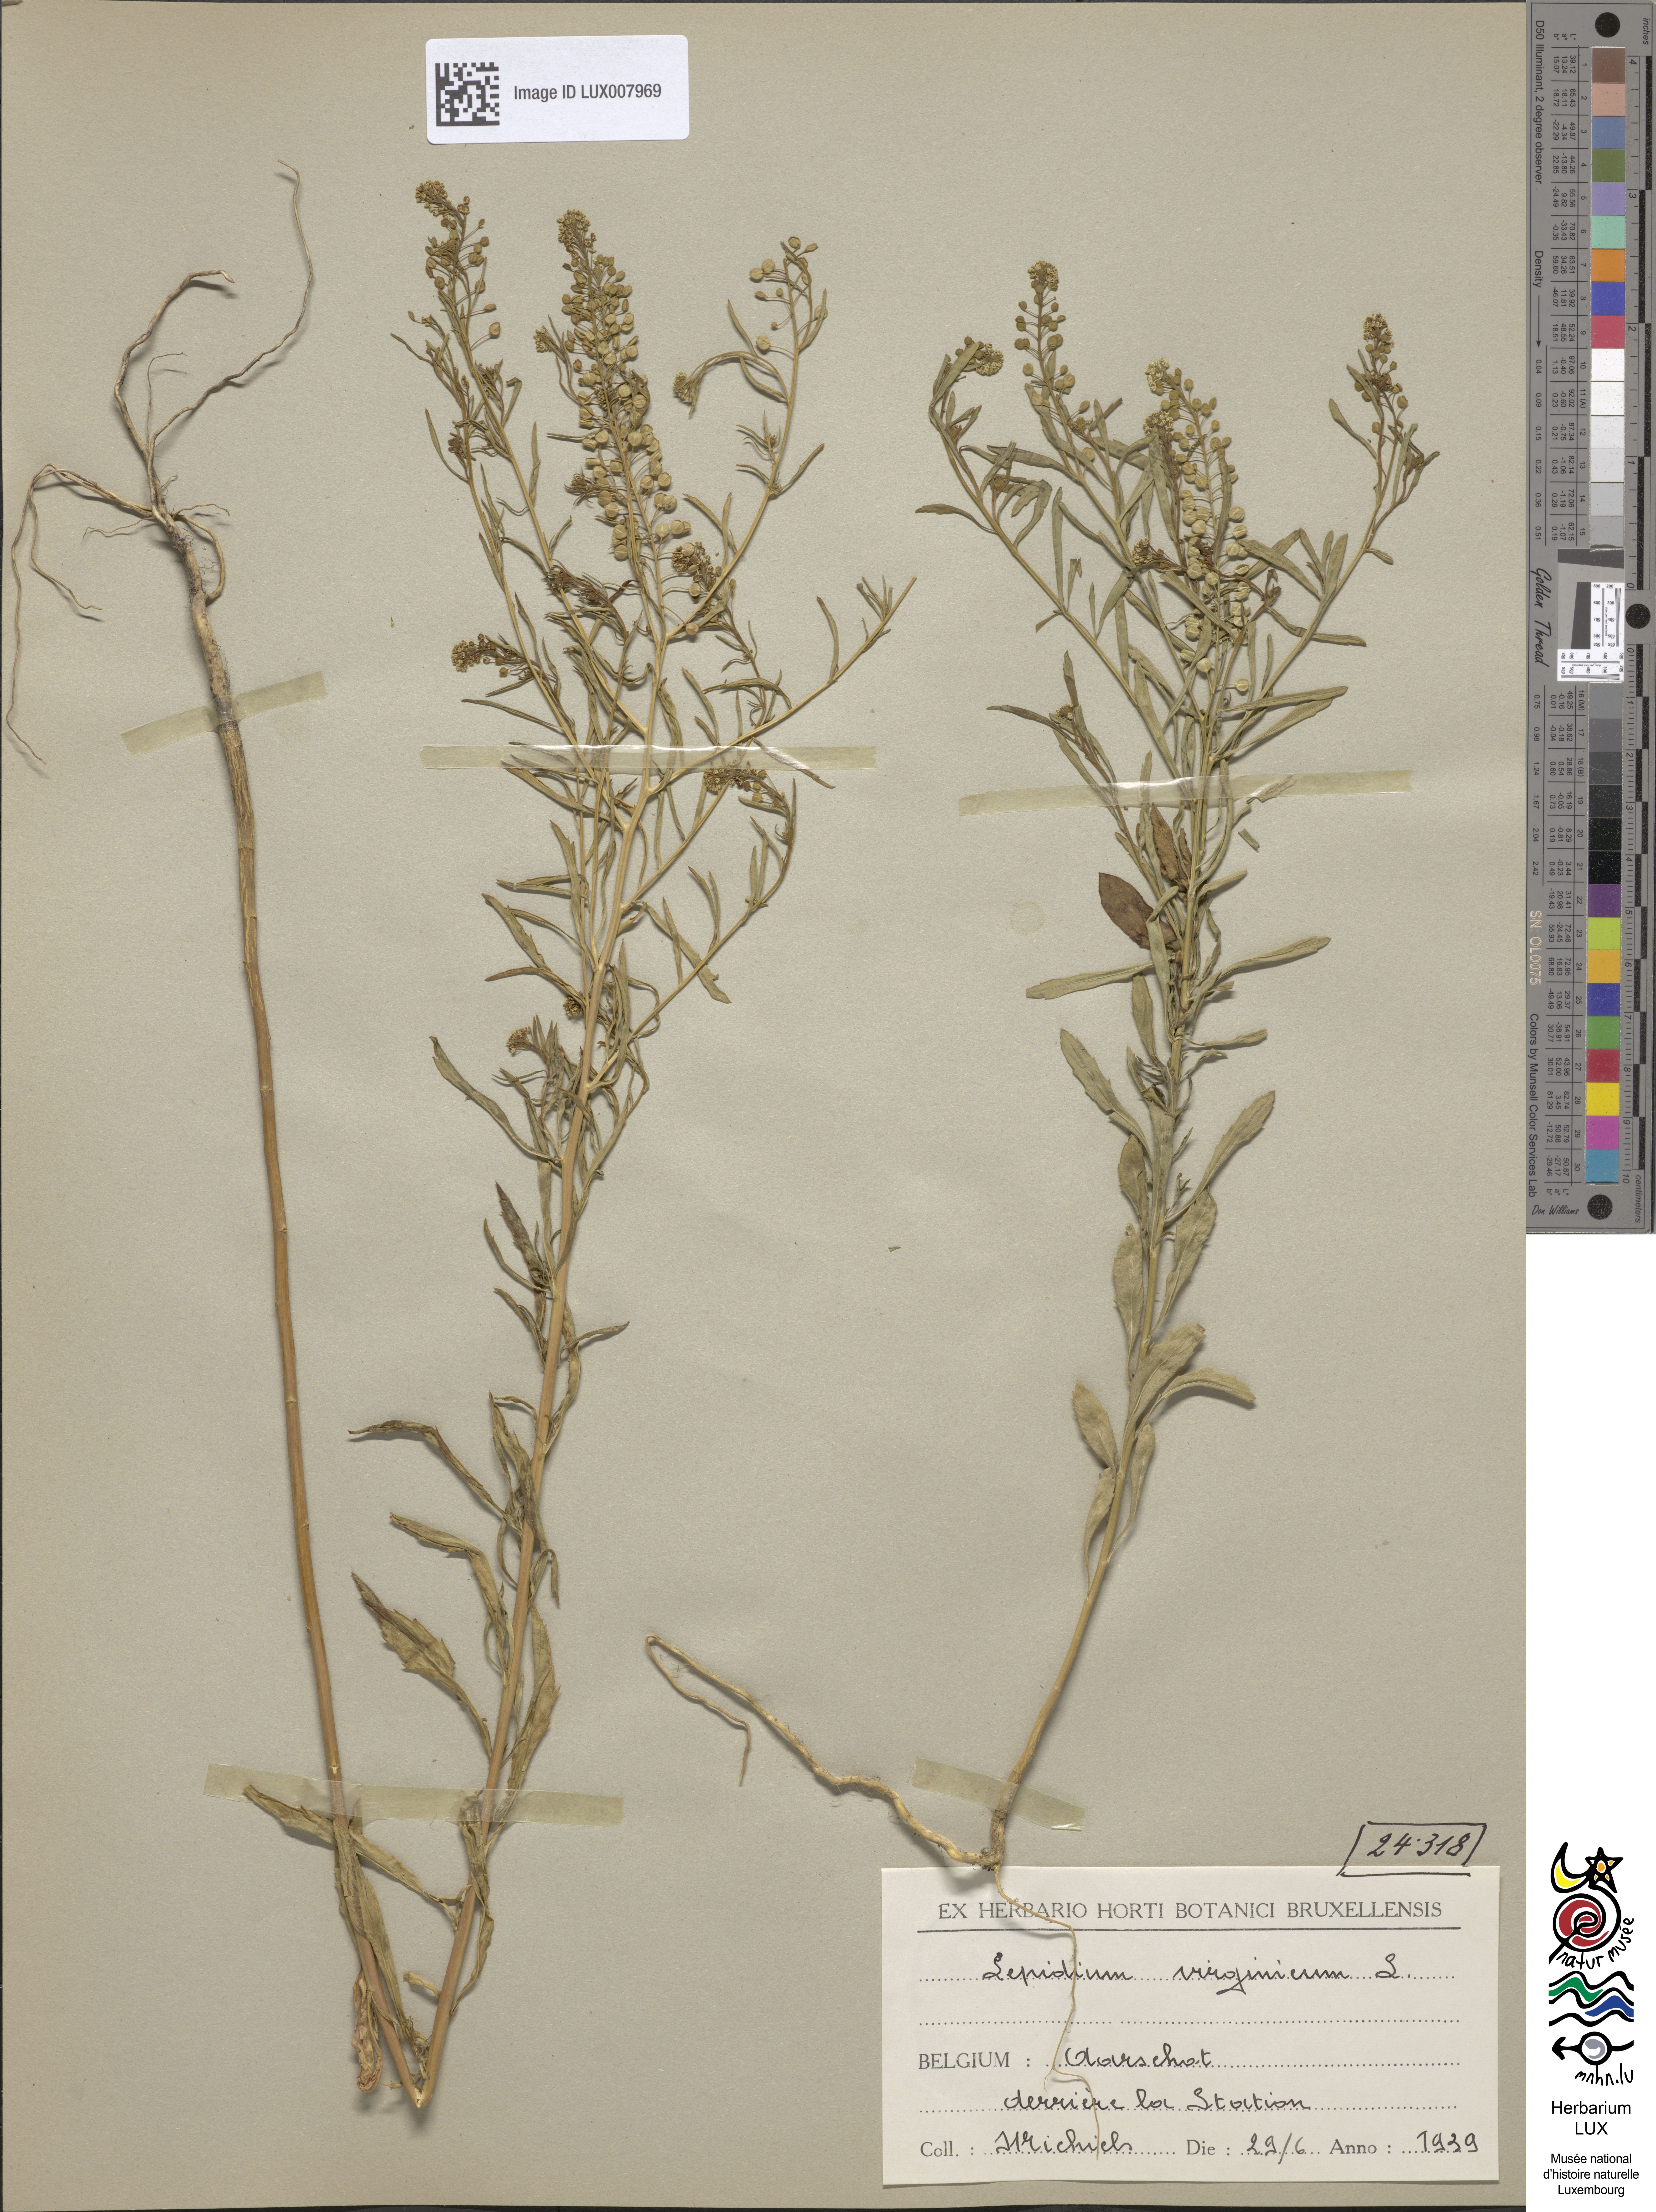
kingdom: Plantae
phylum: Tracheophyta
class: Magnoliopsida
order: Brassicales
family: Brassicaceae
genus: Lepidium
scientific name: Lepidium virginicum
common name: Least pepperwort
